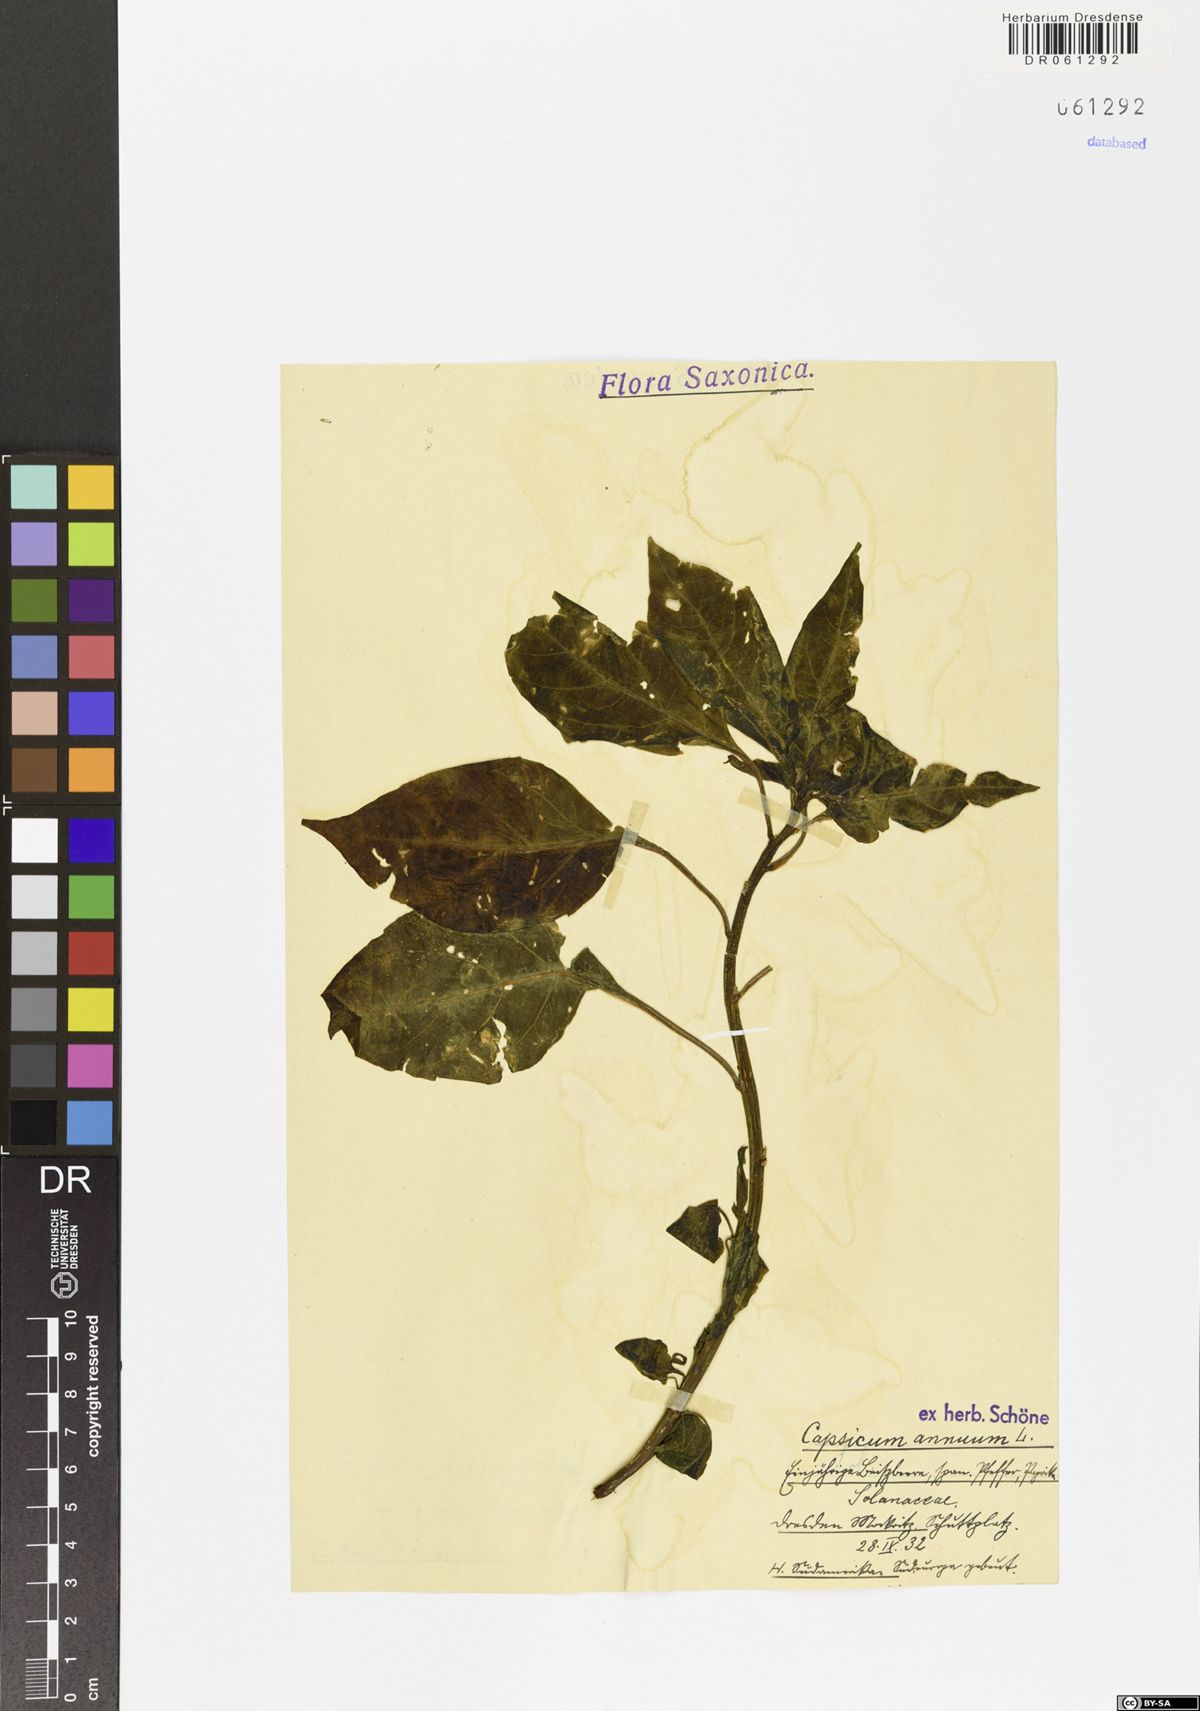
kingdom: Plantae
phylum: Tracheophyta
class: Magnoliopsida
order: Solanales
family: Solanaceae
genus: Capsicum
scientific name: Capsicum annuum
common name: Sweet pepper
